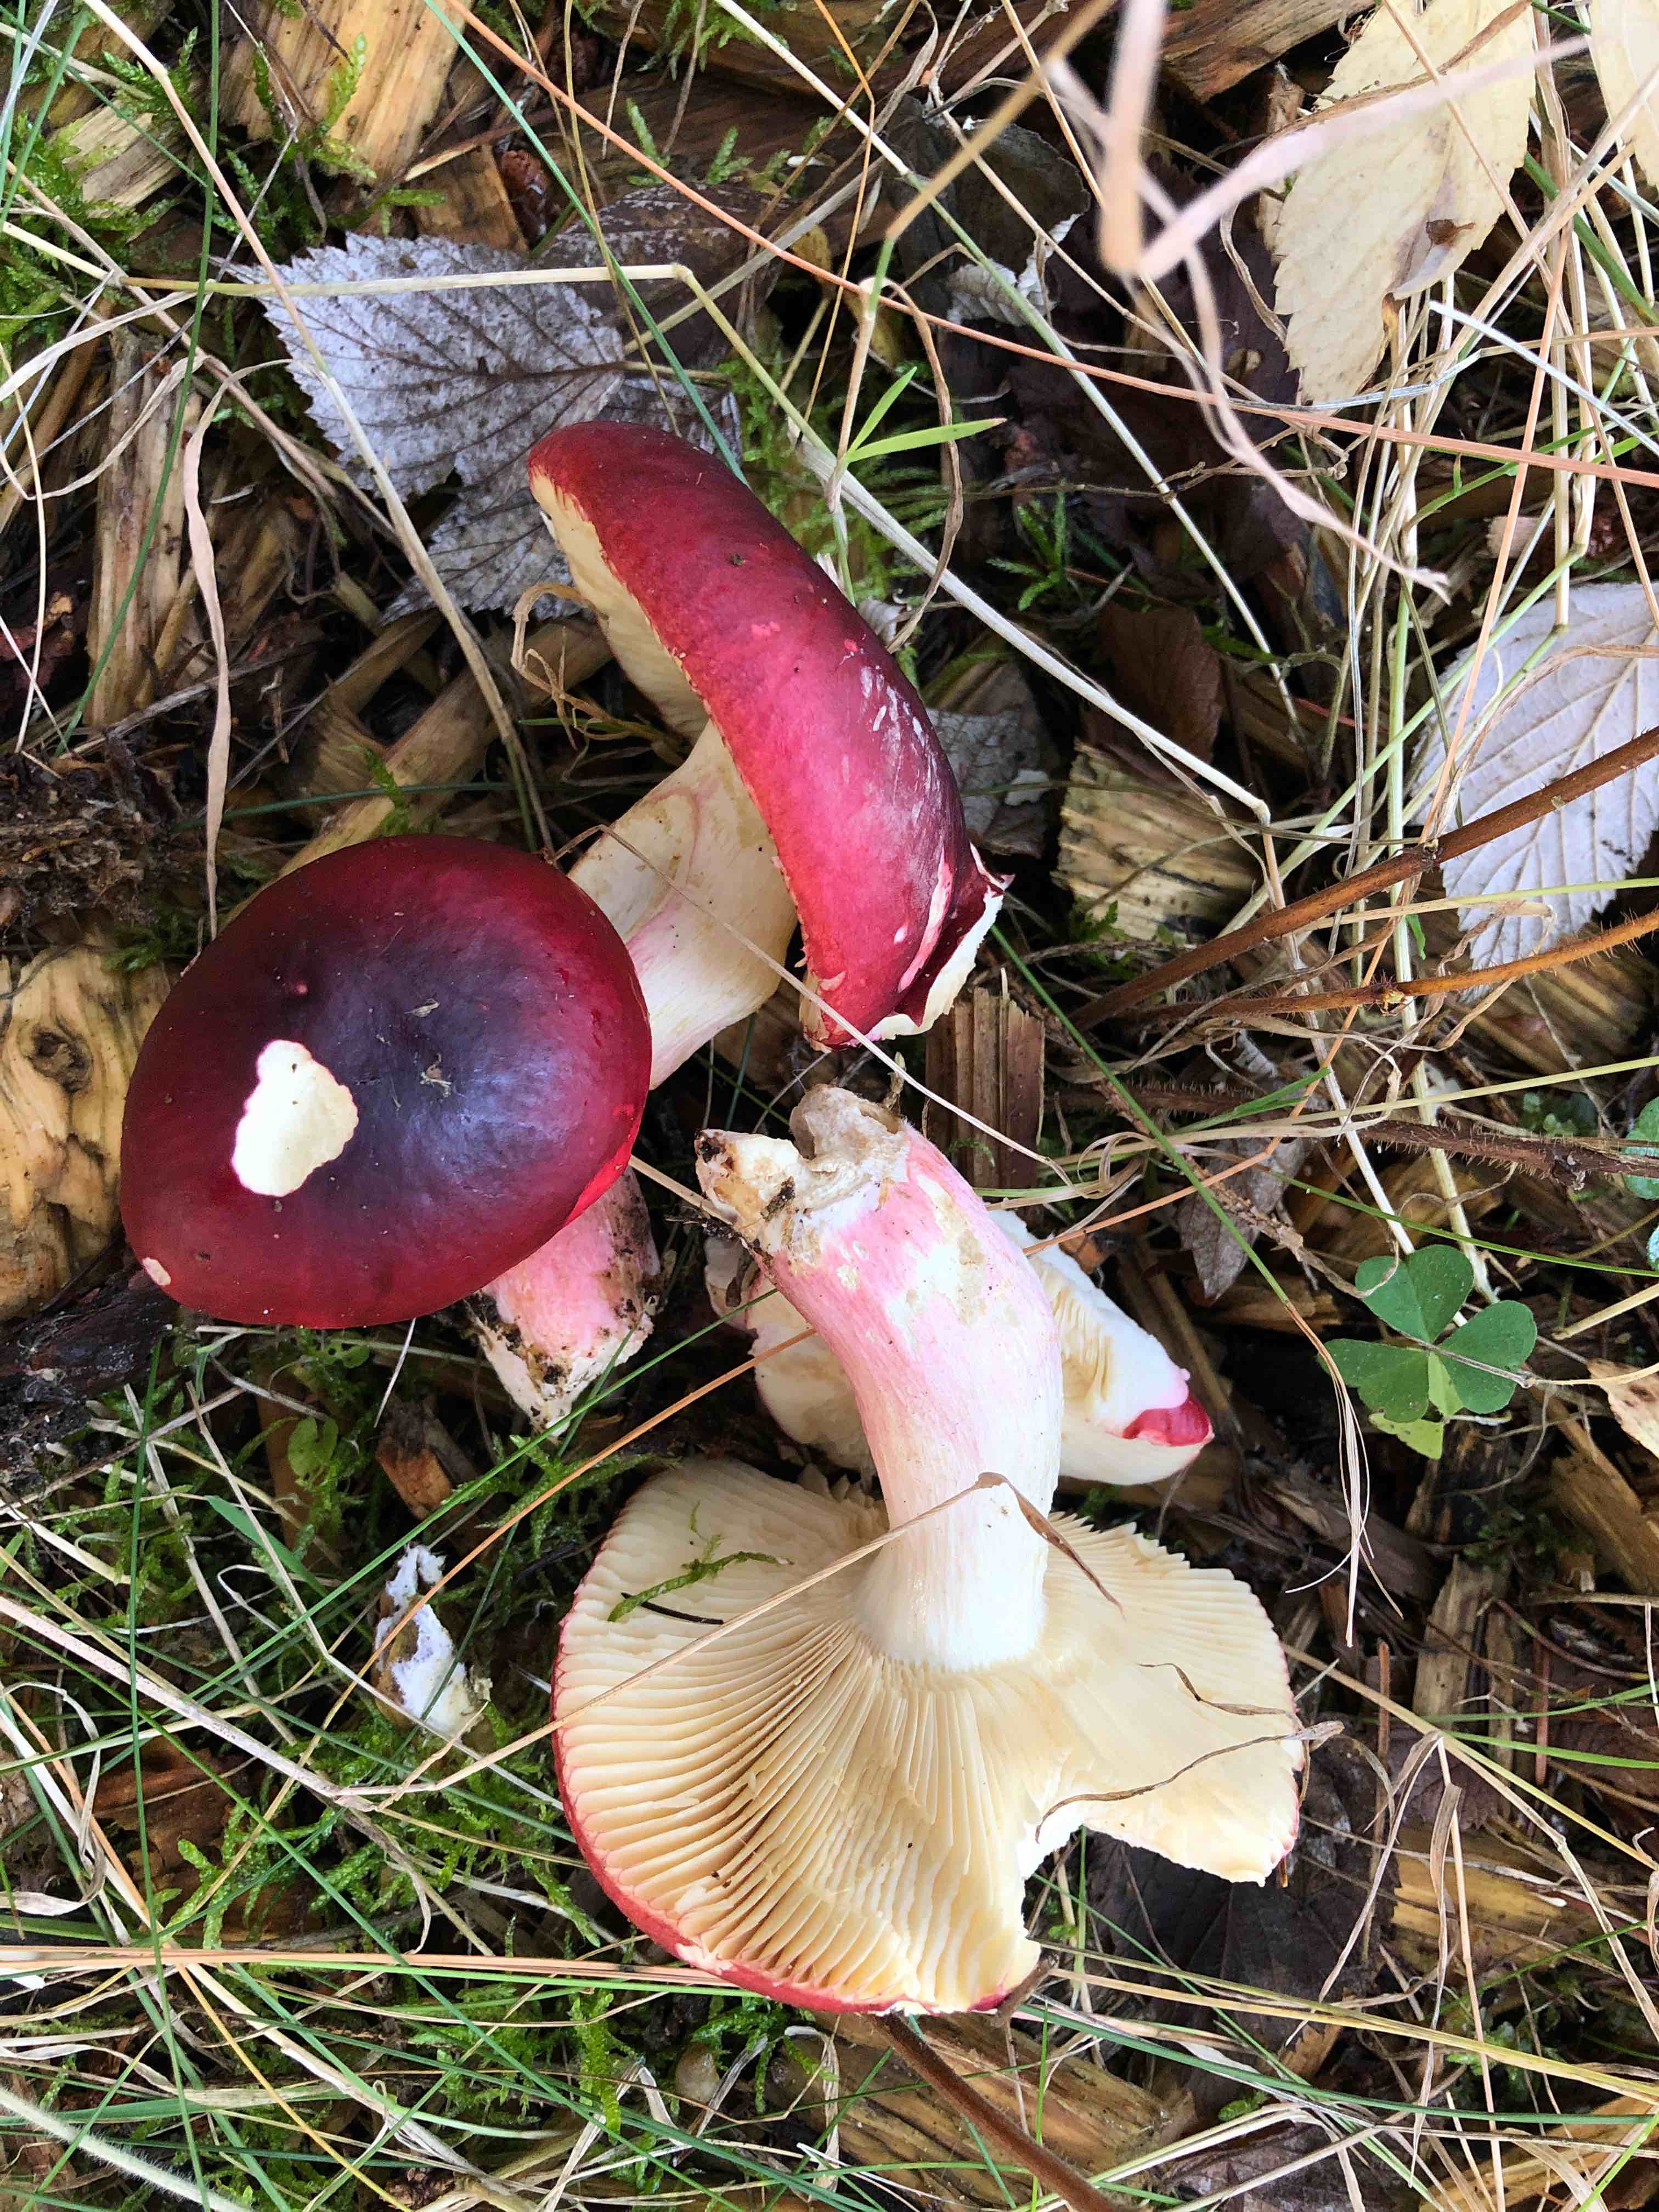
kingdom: Fungi
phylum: Basidiomycota
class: Agaricomycetes
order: Russulales
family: Russulaceae
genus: Russula
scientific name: Russula xerampelina
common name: hummer-skørhat
